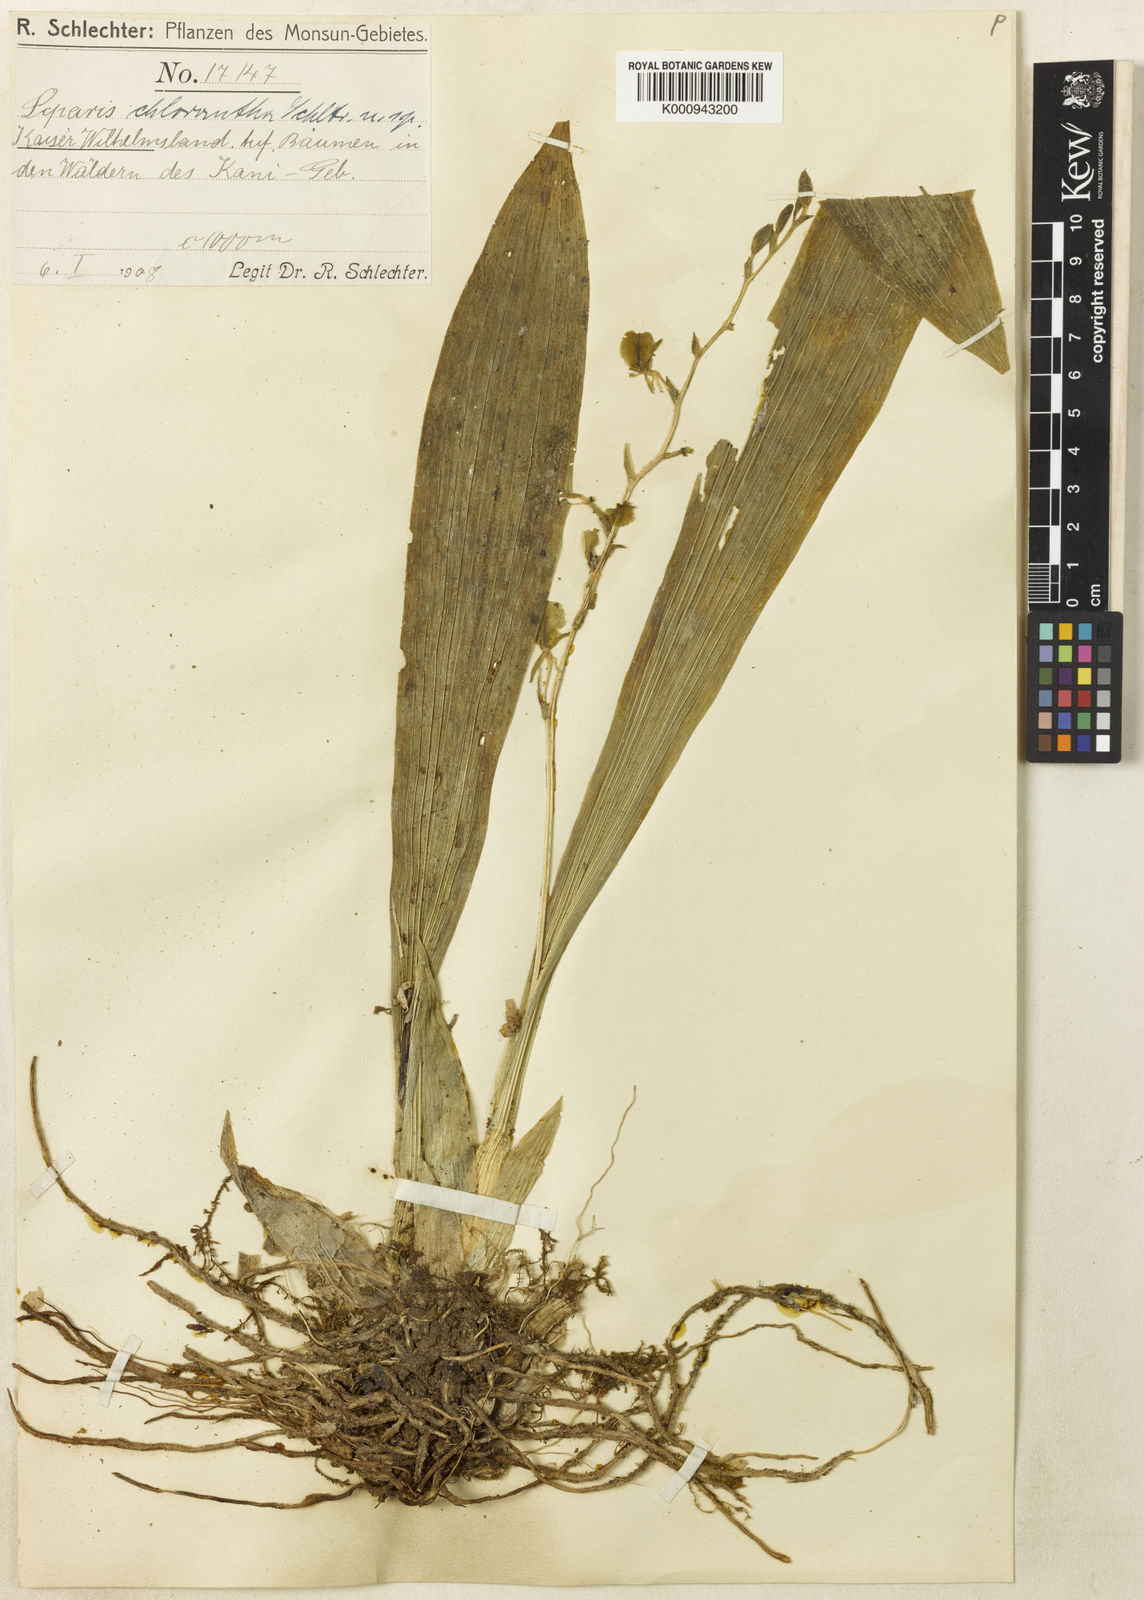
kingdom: Plantae
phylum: Tracheophyta
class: Liliopsida
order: Asparagales
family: Orchidaceae
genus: Liparis
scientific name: Liparis chlorantha
